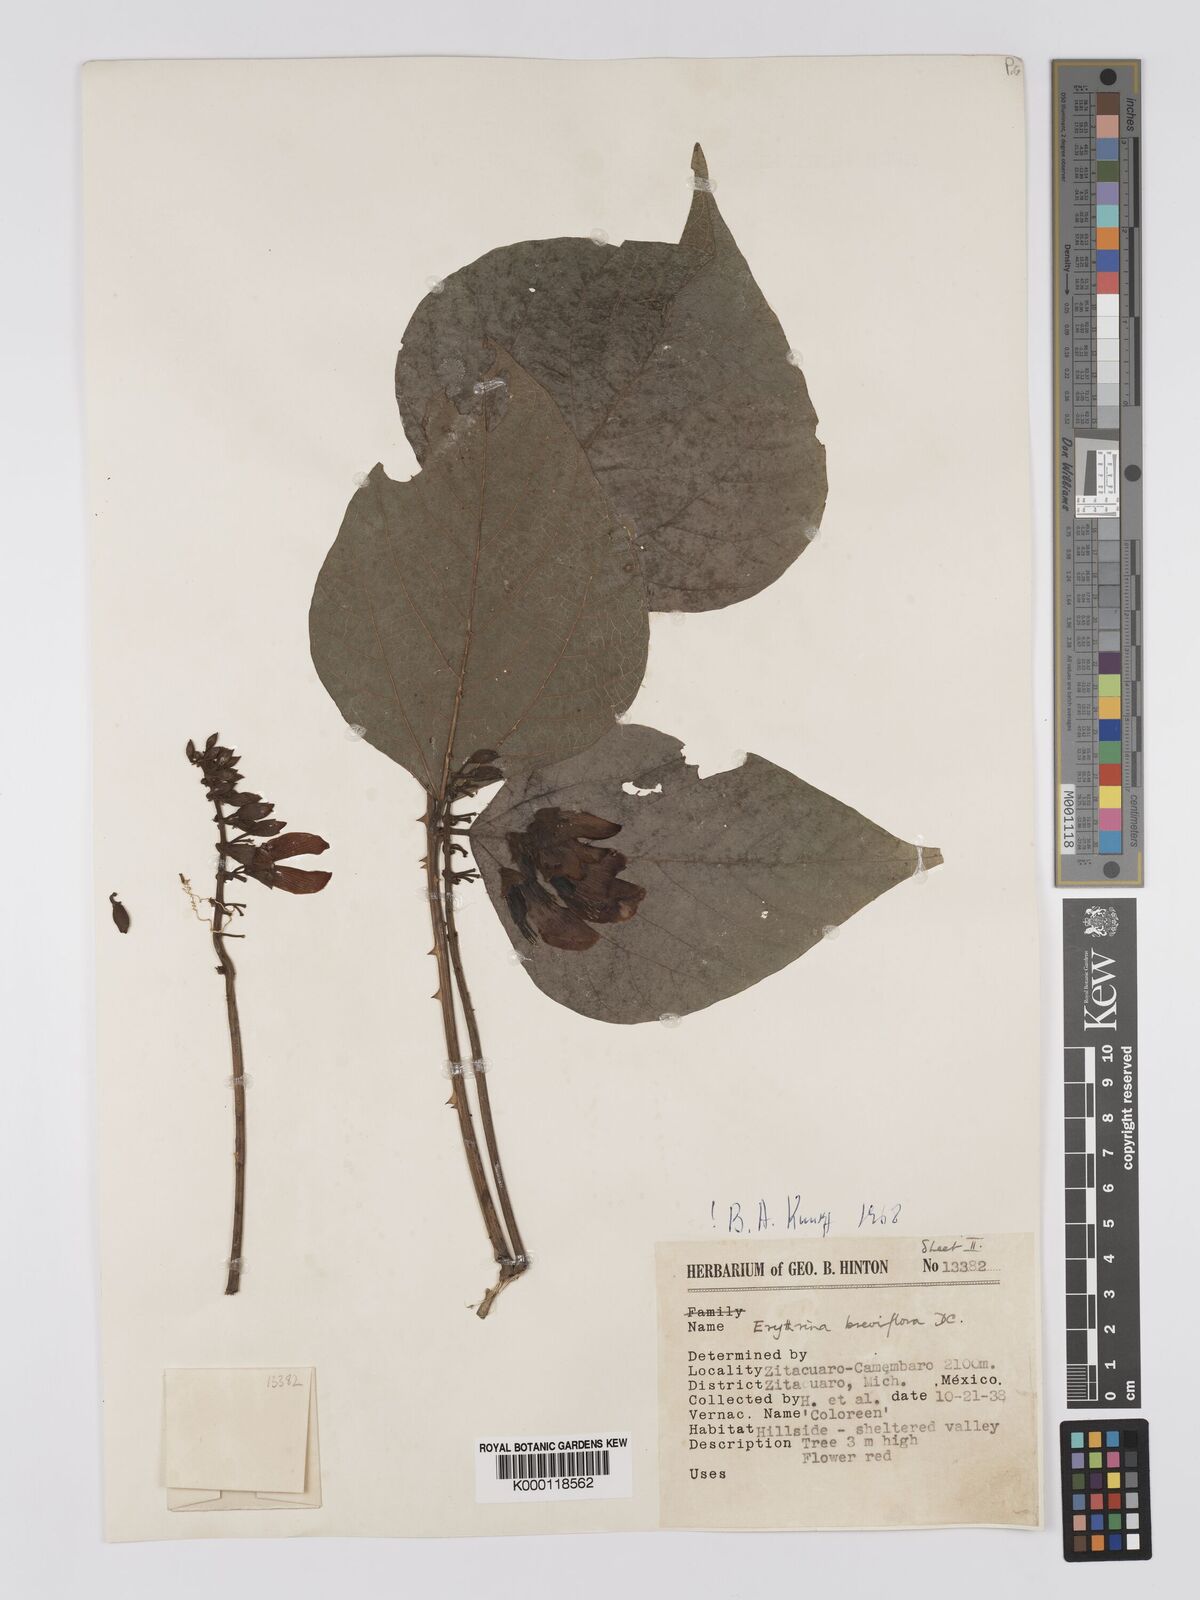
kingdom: Plantae
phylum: Tracheophyta
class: Magnoliopsida
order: Fabales
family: Fabaceae
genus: Erythrina
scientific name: Erythrina breviflora
